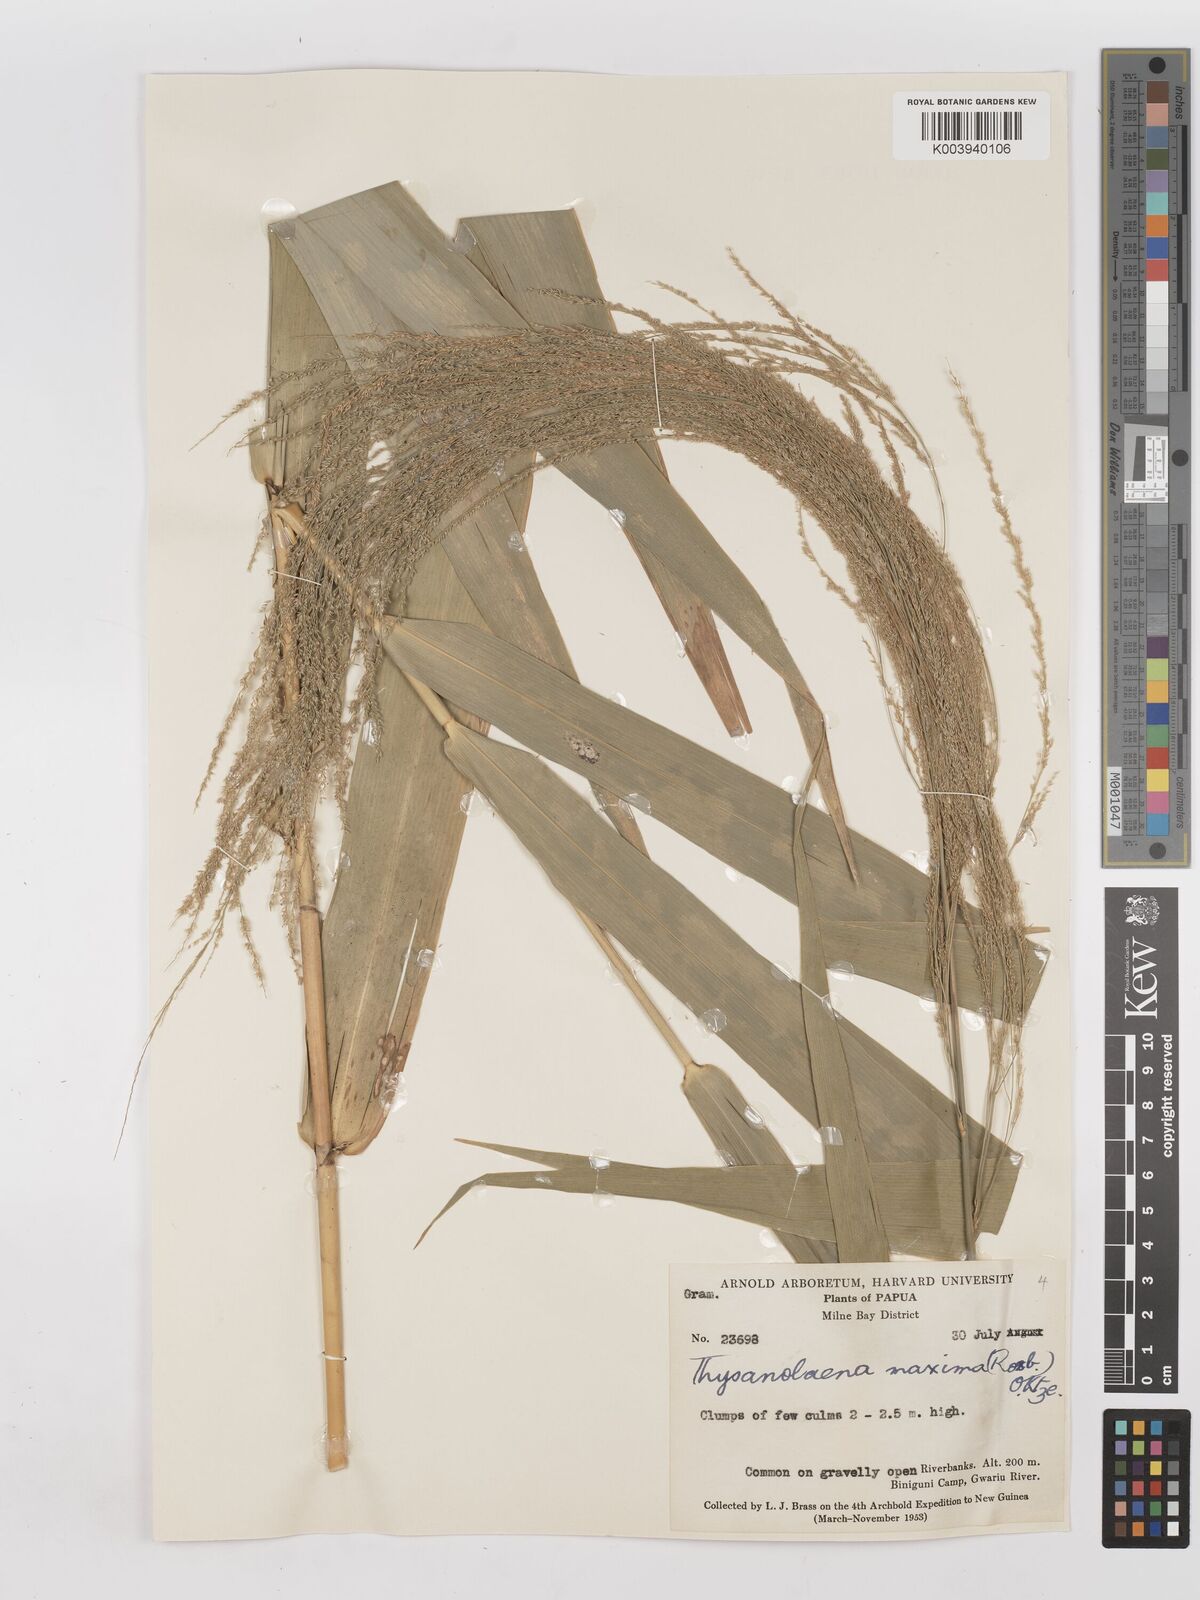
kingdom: Plantae
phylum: Tracheophyta
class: Liliopsida
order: Poales
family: Poaceae
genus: Thysanolaena
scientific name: Thysanolaena latifolia
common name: Tiger grass
